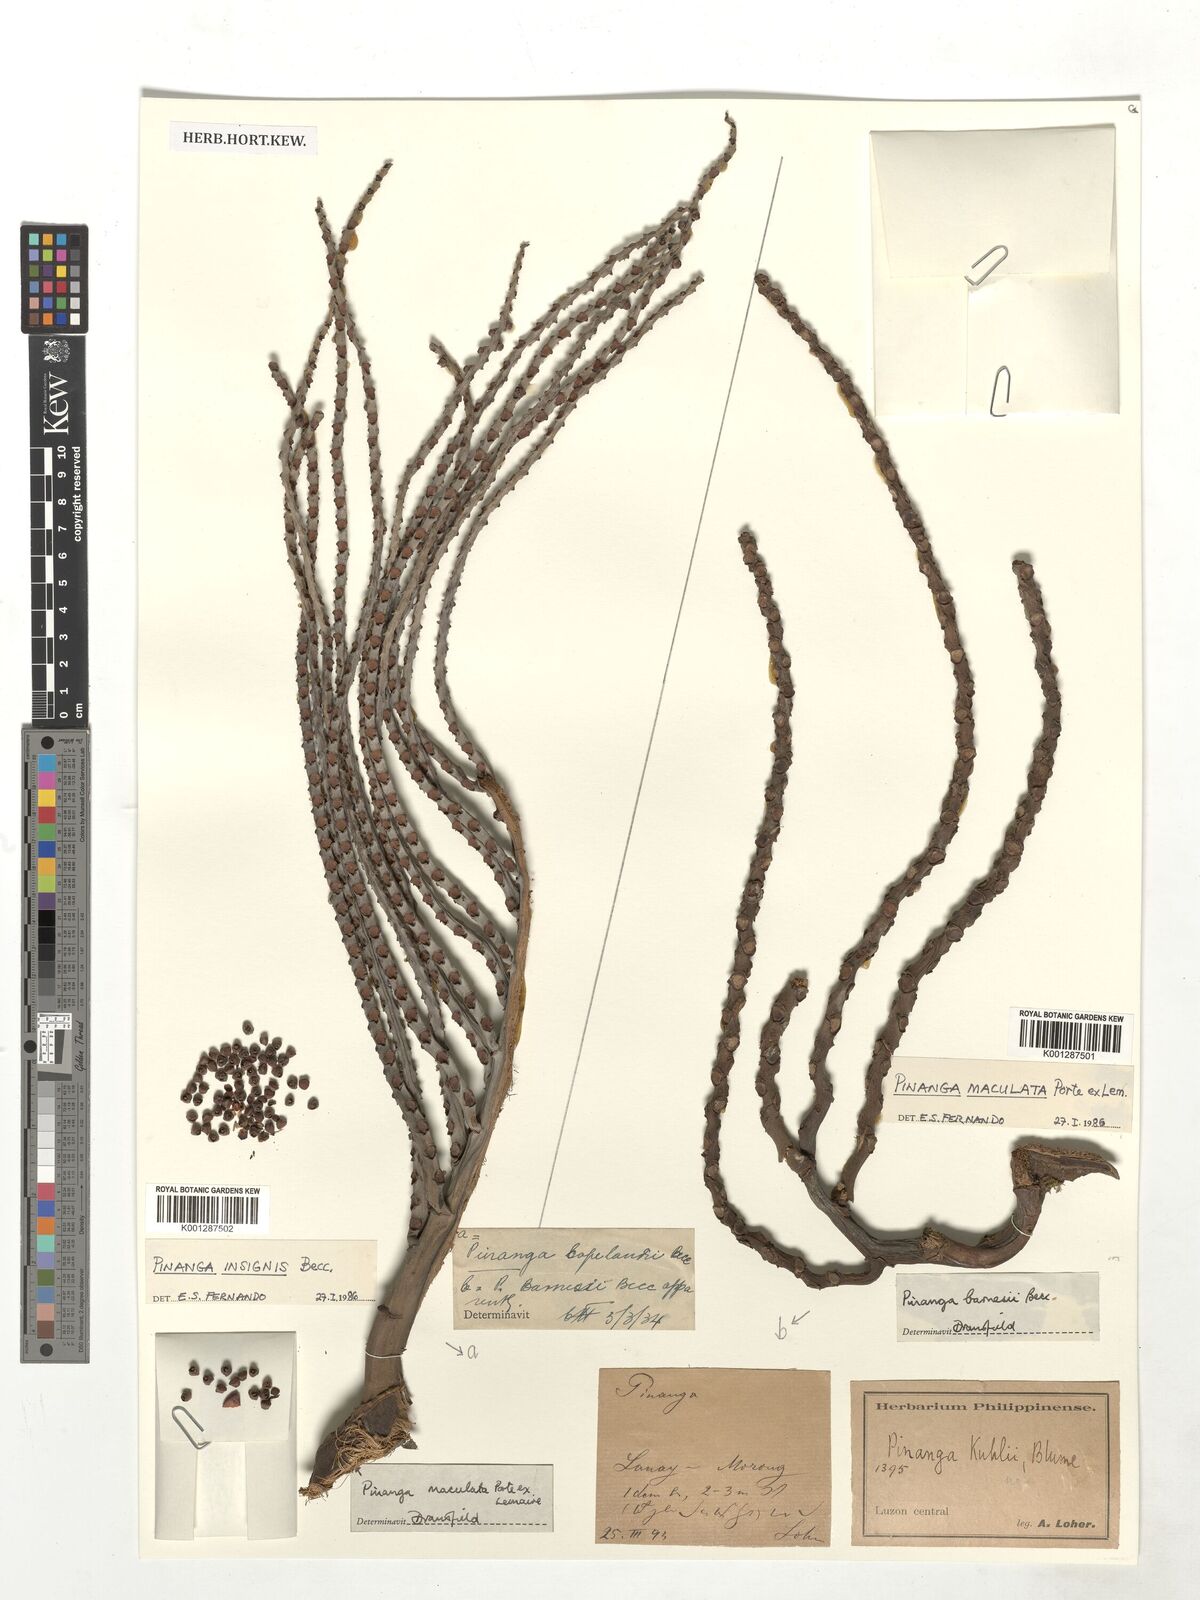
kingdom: Plantae
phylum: Tracheophyta
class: Liliopsida
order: Arecales
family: Arecaceae
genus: Pinanga
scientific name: Pinanga insignis
